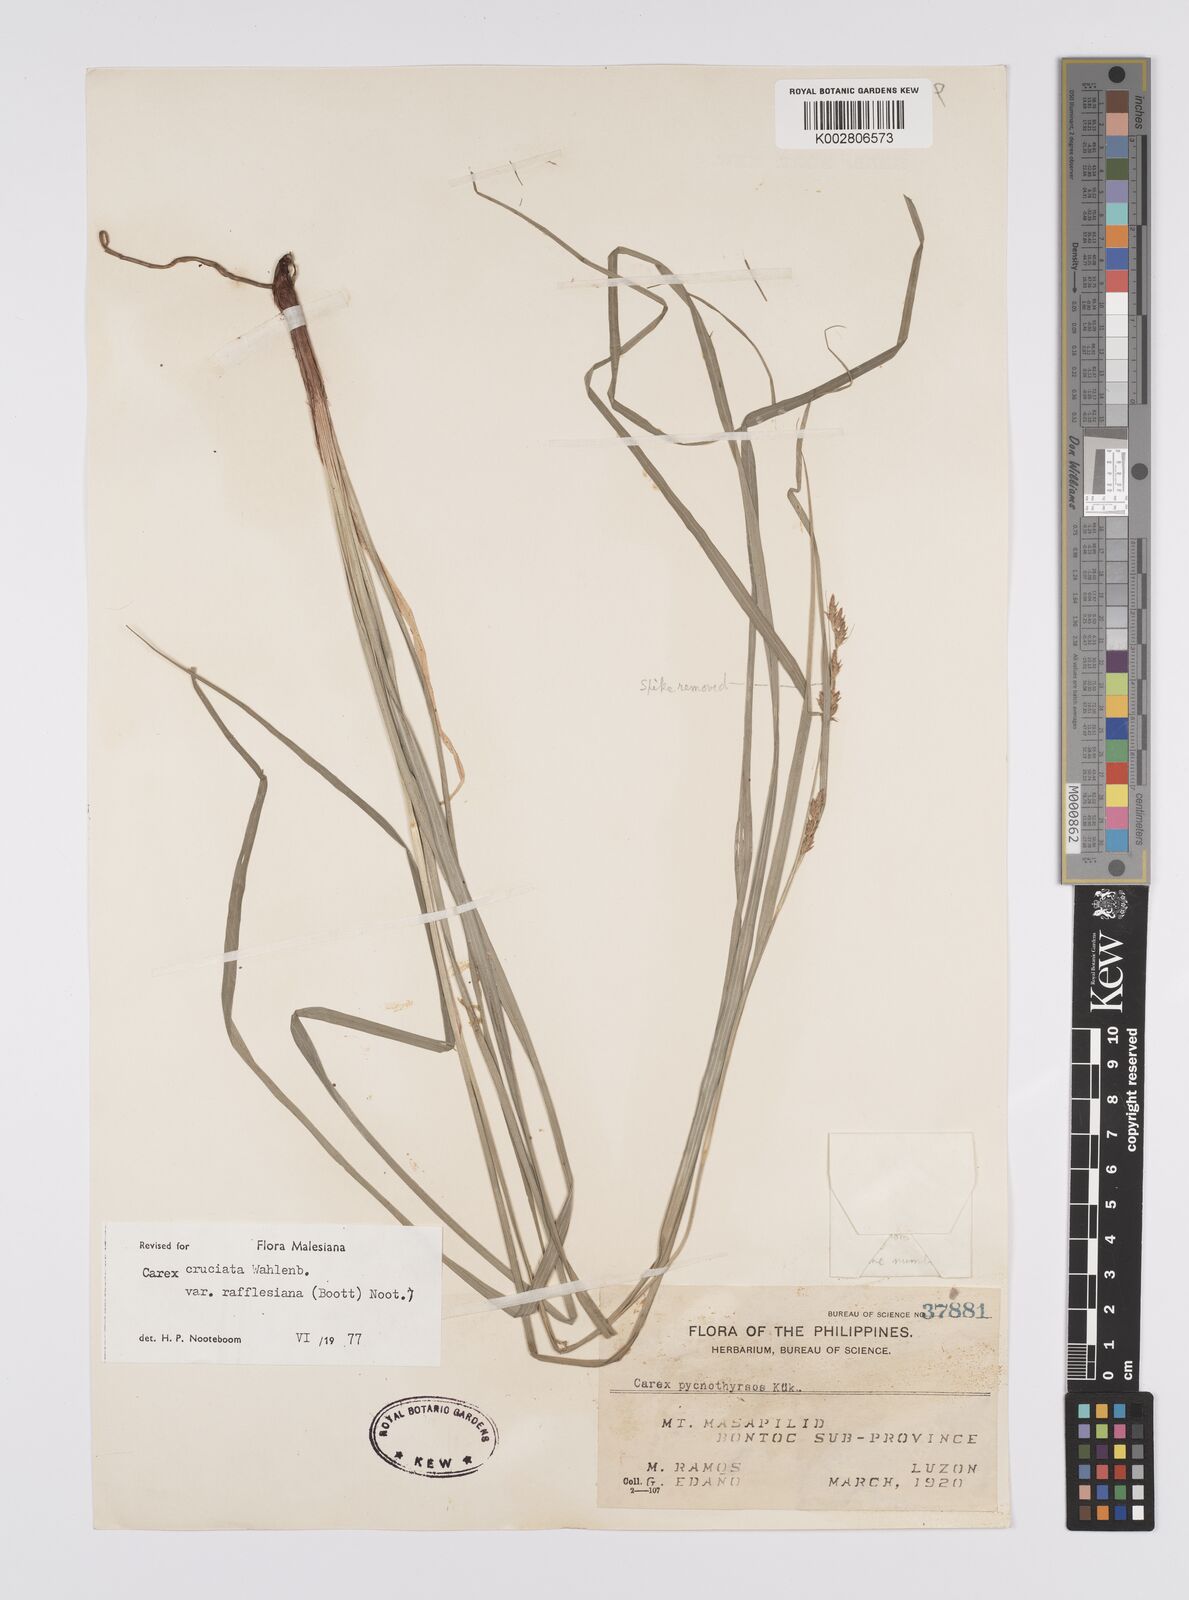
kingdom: Plantae
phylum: Tracheophyta
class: Liliopsida
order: Poales
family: Cyperaceae
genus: Carex
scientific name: Carex rafflesiana
